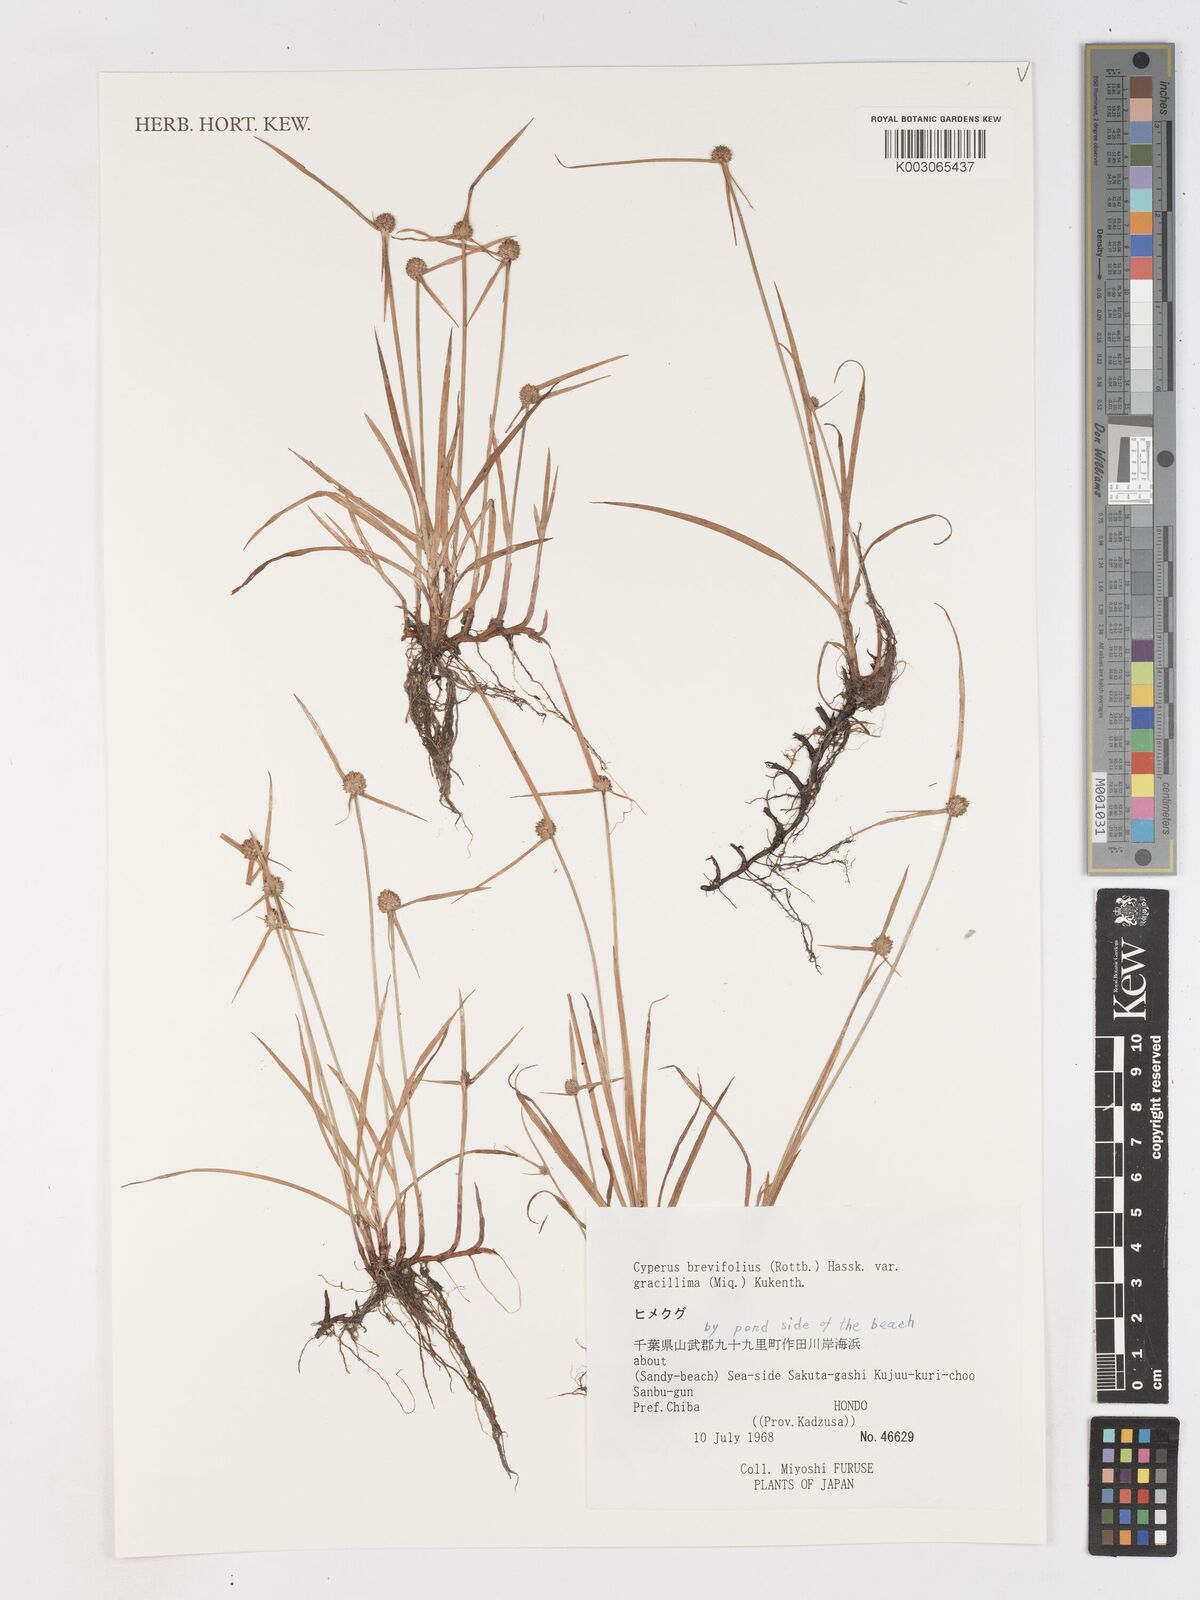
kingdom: Plantae
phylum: Tracheophyta
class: Liliopsida
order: Poales
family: Cyperaceae
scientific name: Cyperaceae
